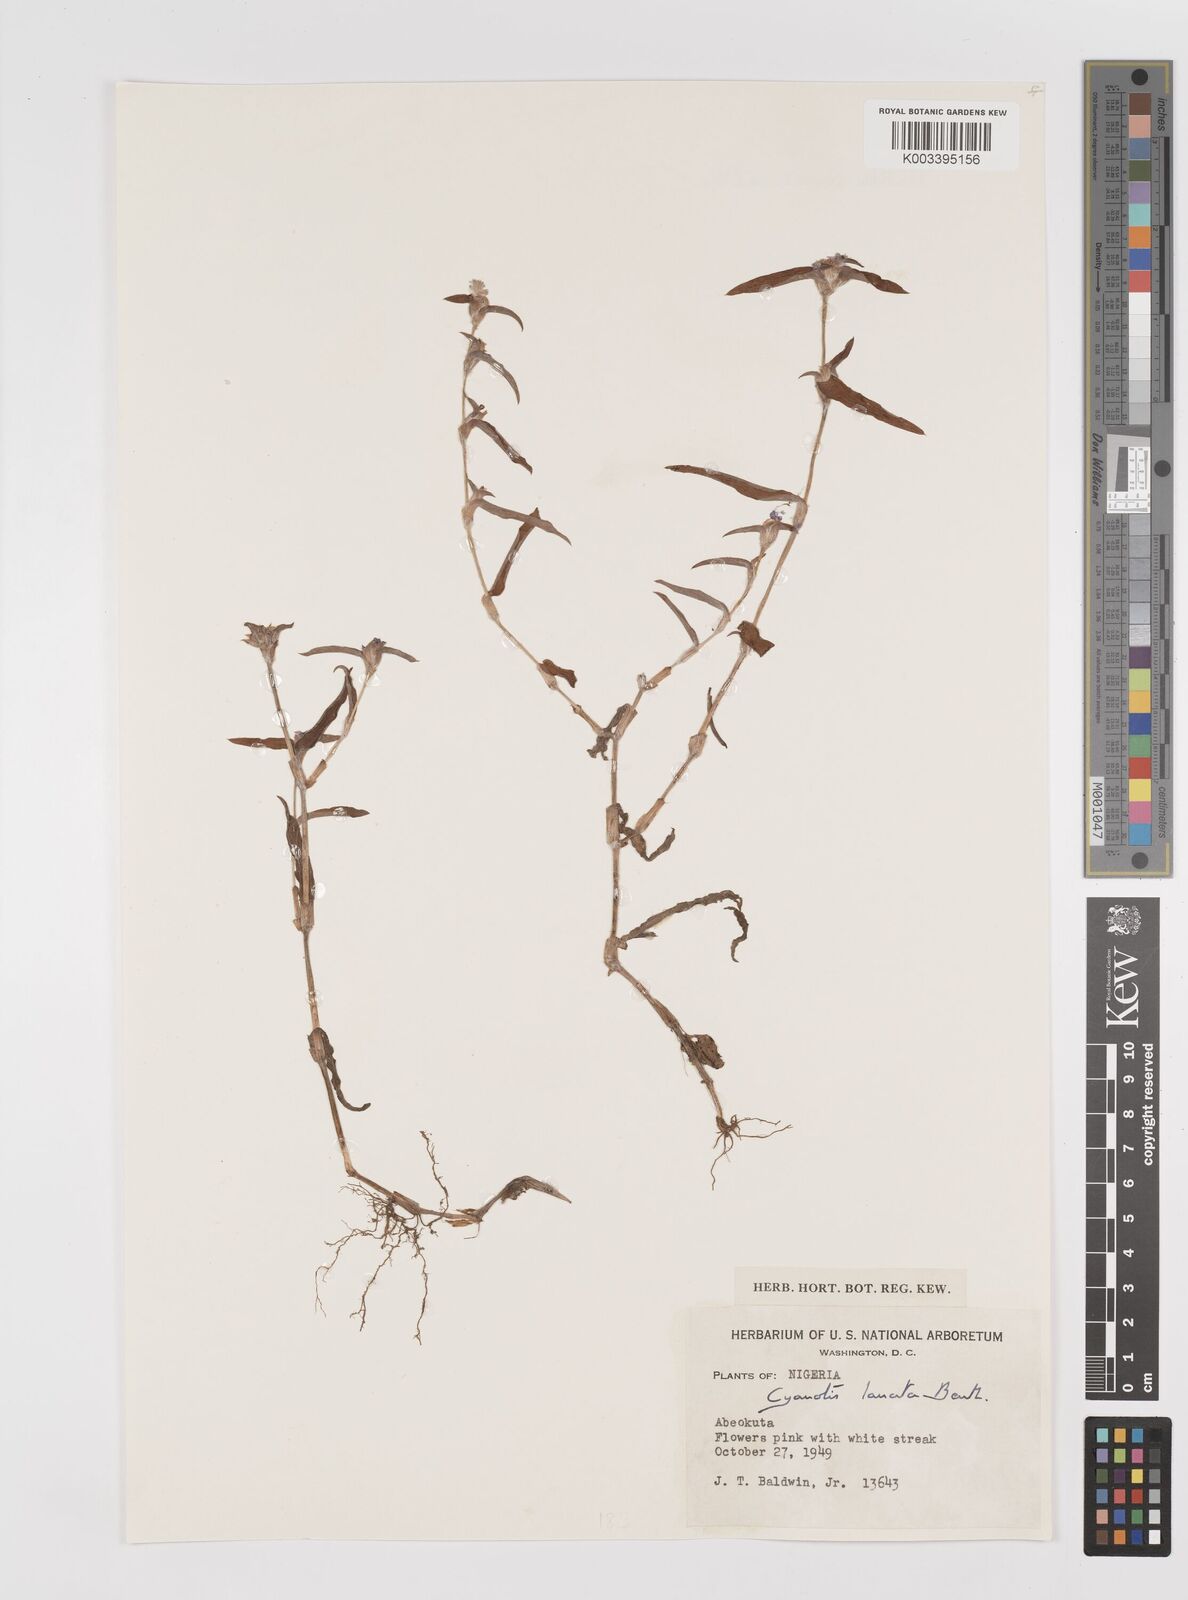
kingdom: Plantae
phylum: Tracheophyta
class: Liliopsida
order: Commelinales
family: Commelinaceae
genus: Cyanotis
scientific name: Cyanotis lanata
